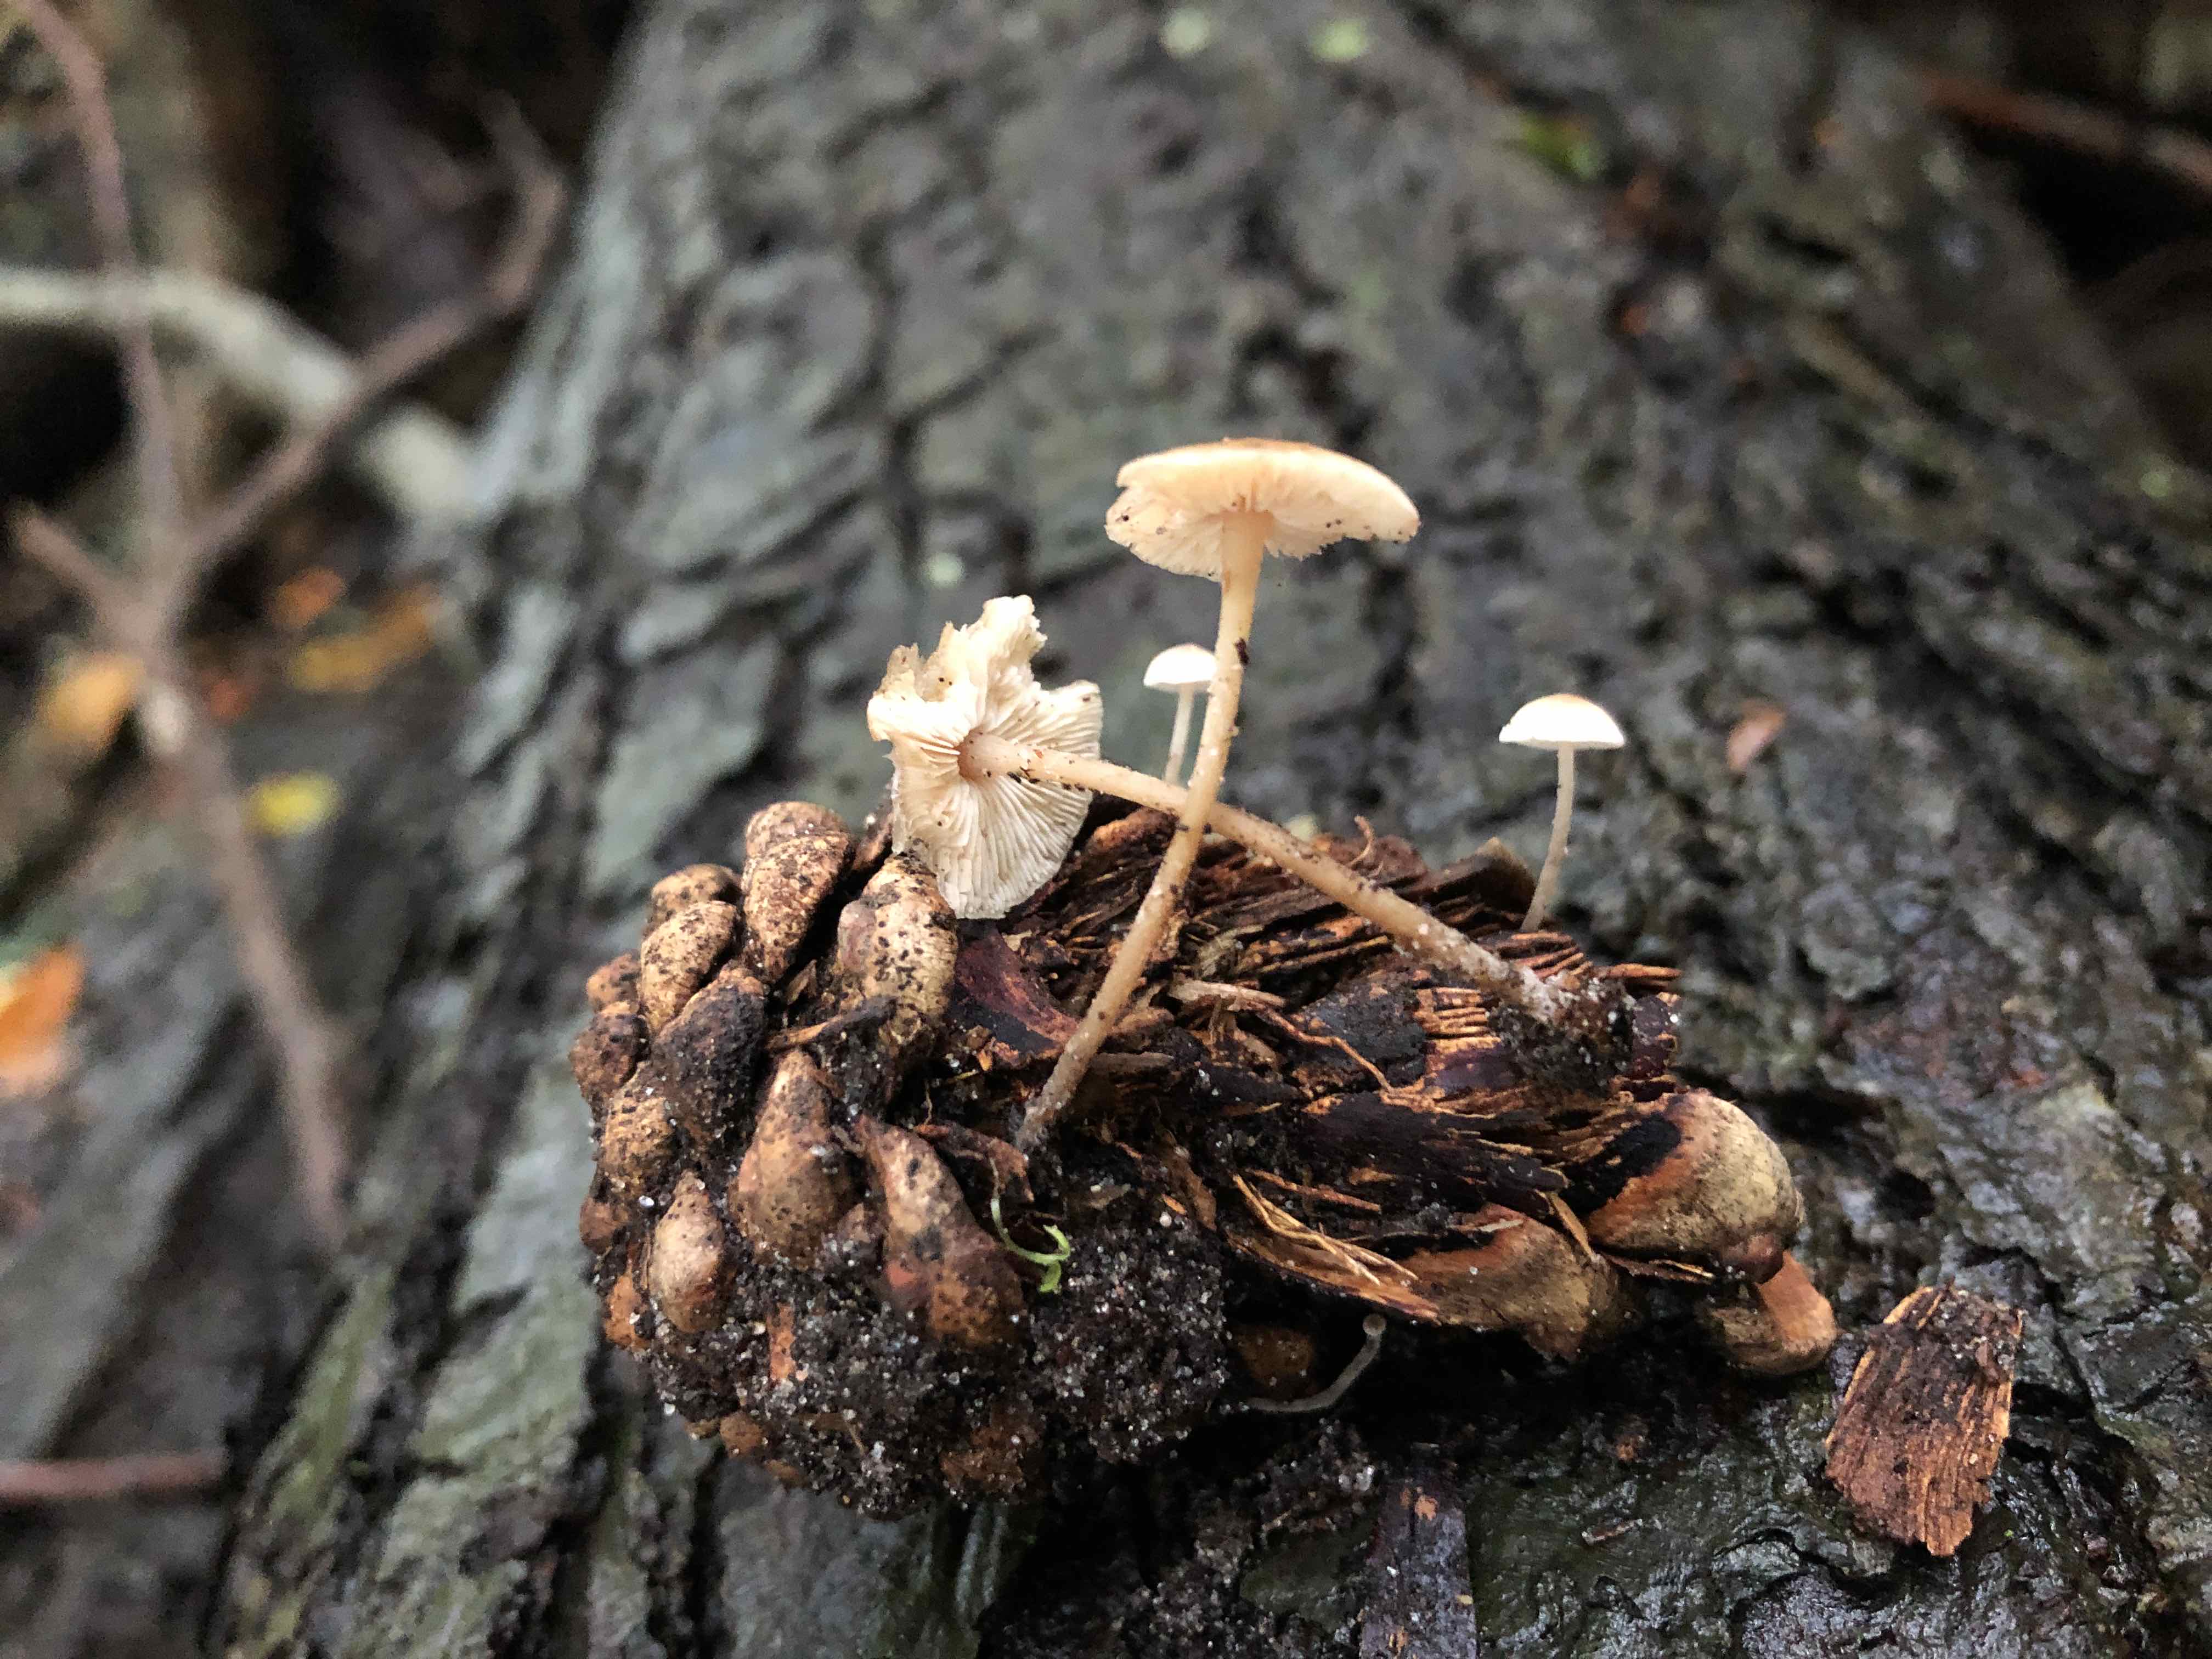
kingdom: Fungi
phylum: Basidiomycota
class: Agaricomycetes
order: Agaricales
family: Marasmiaceae
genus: Baeospora
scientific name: Baeospora myosura
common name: koglebruskhat
